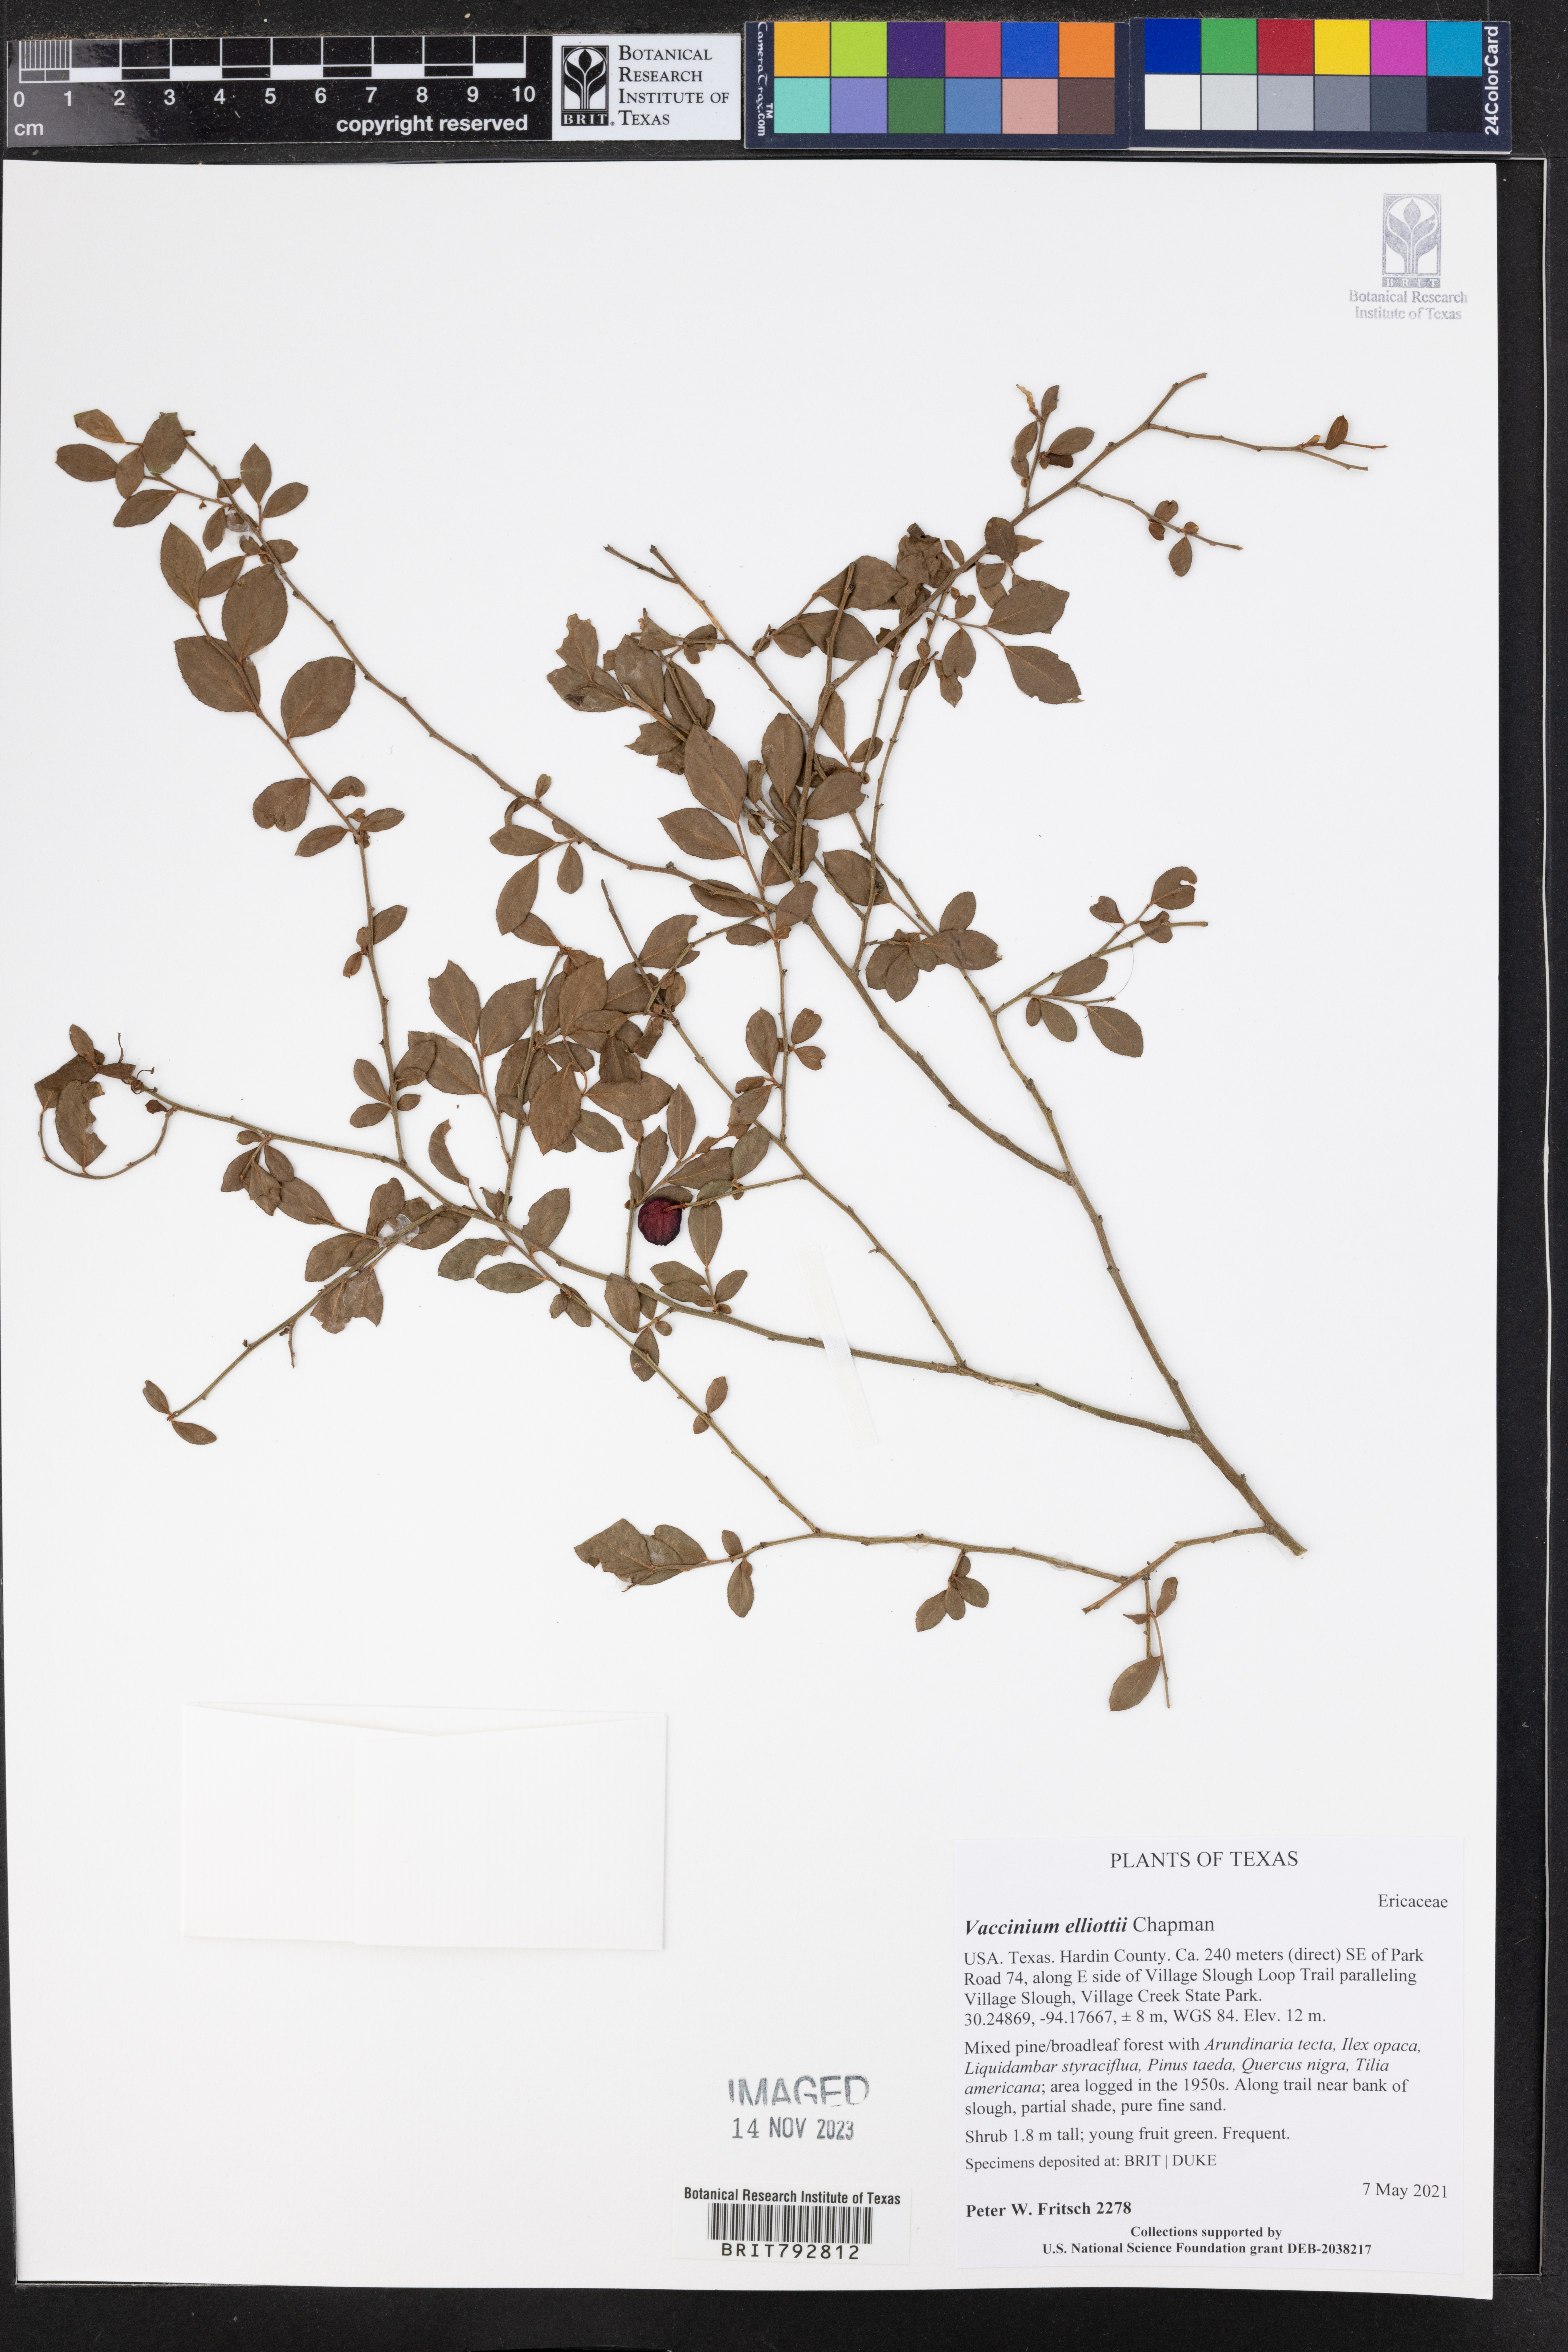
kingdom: Plantae
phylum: Tracheophyta
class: Magnoliopsida
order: Ericales
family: Ericaceae
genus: Vaccinium
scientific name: Vaccinium corymbosum
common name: Blueberry
